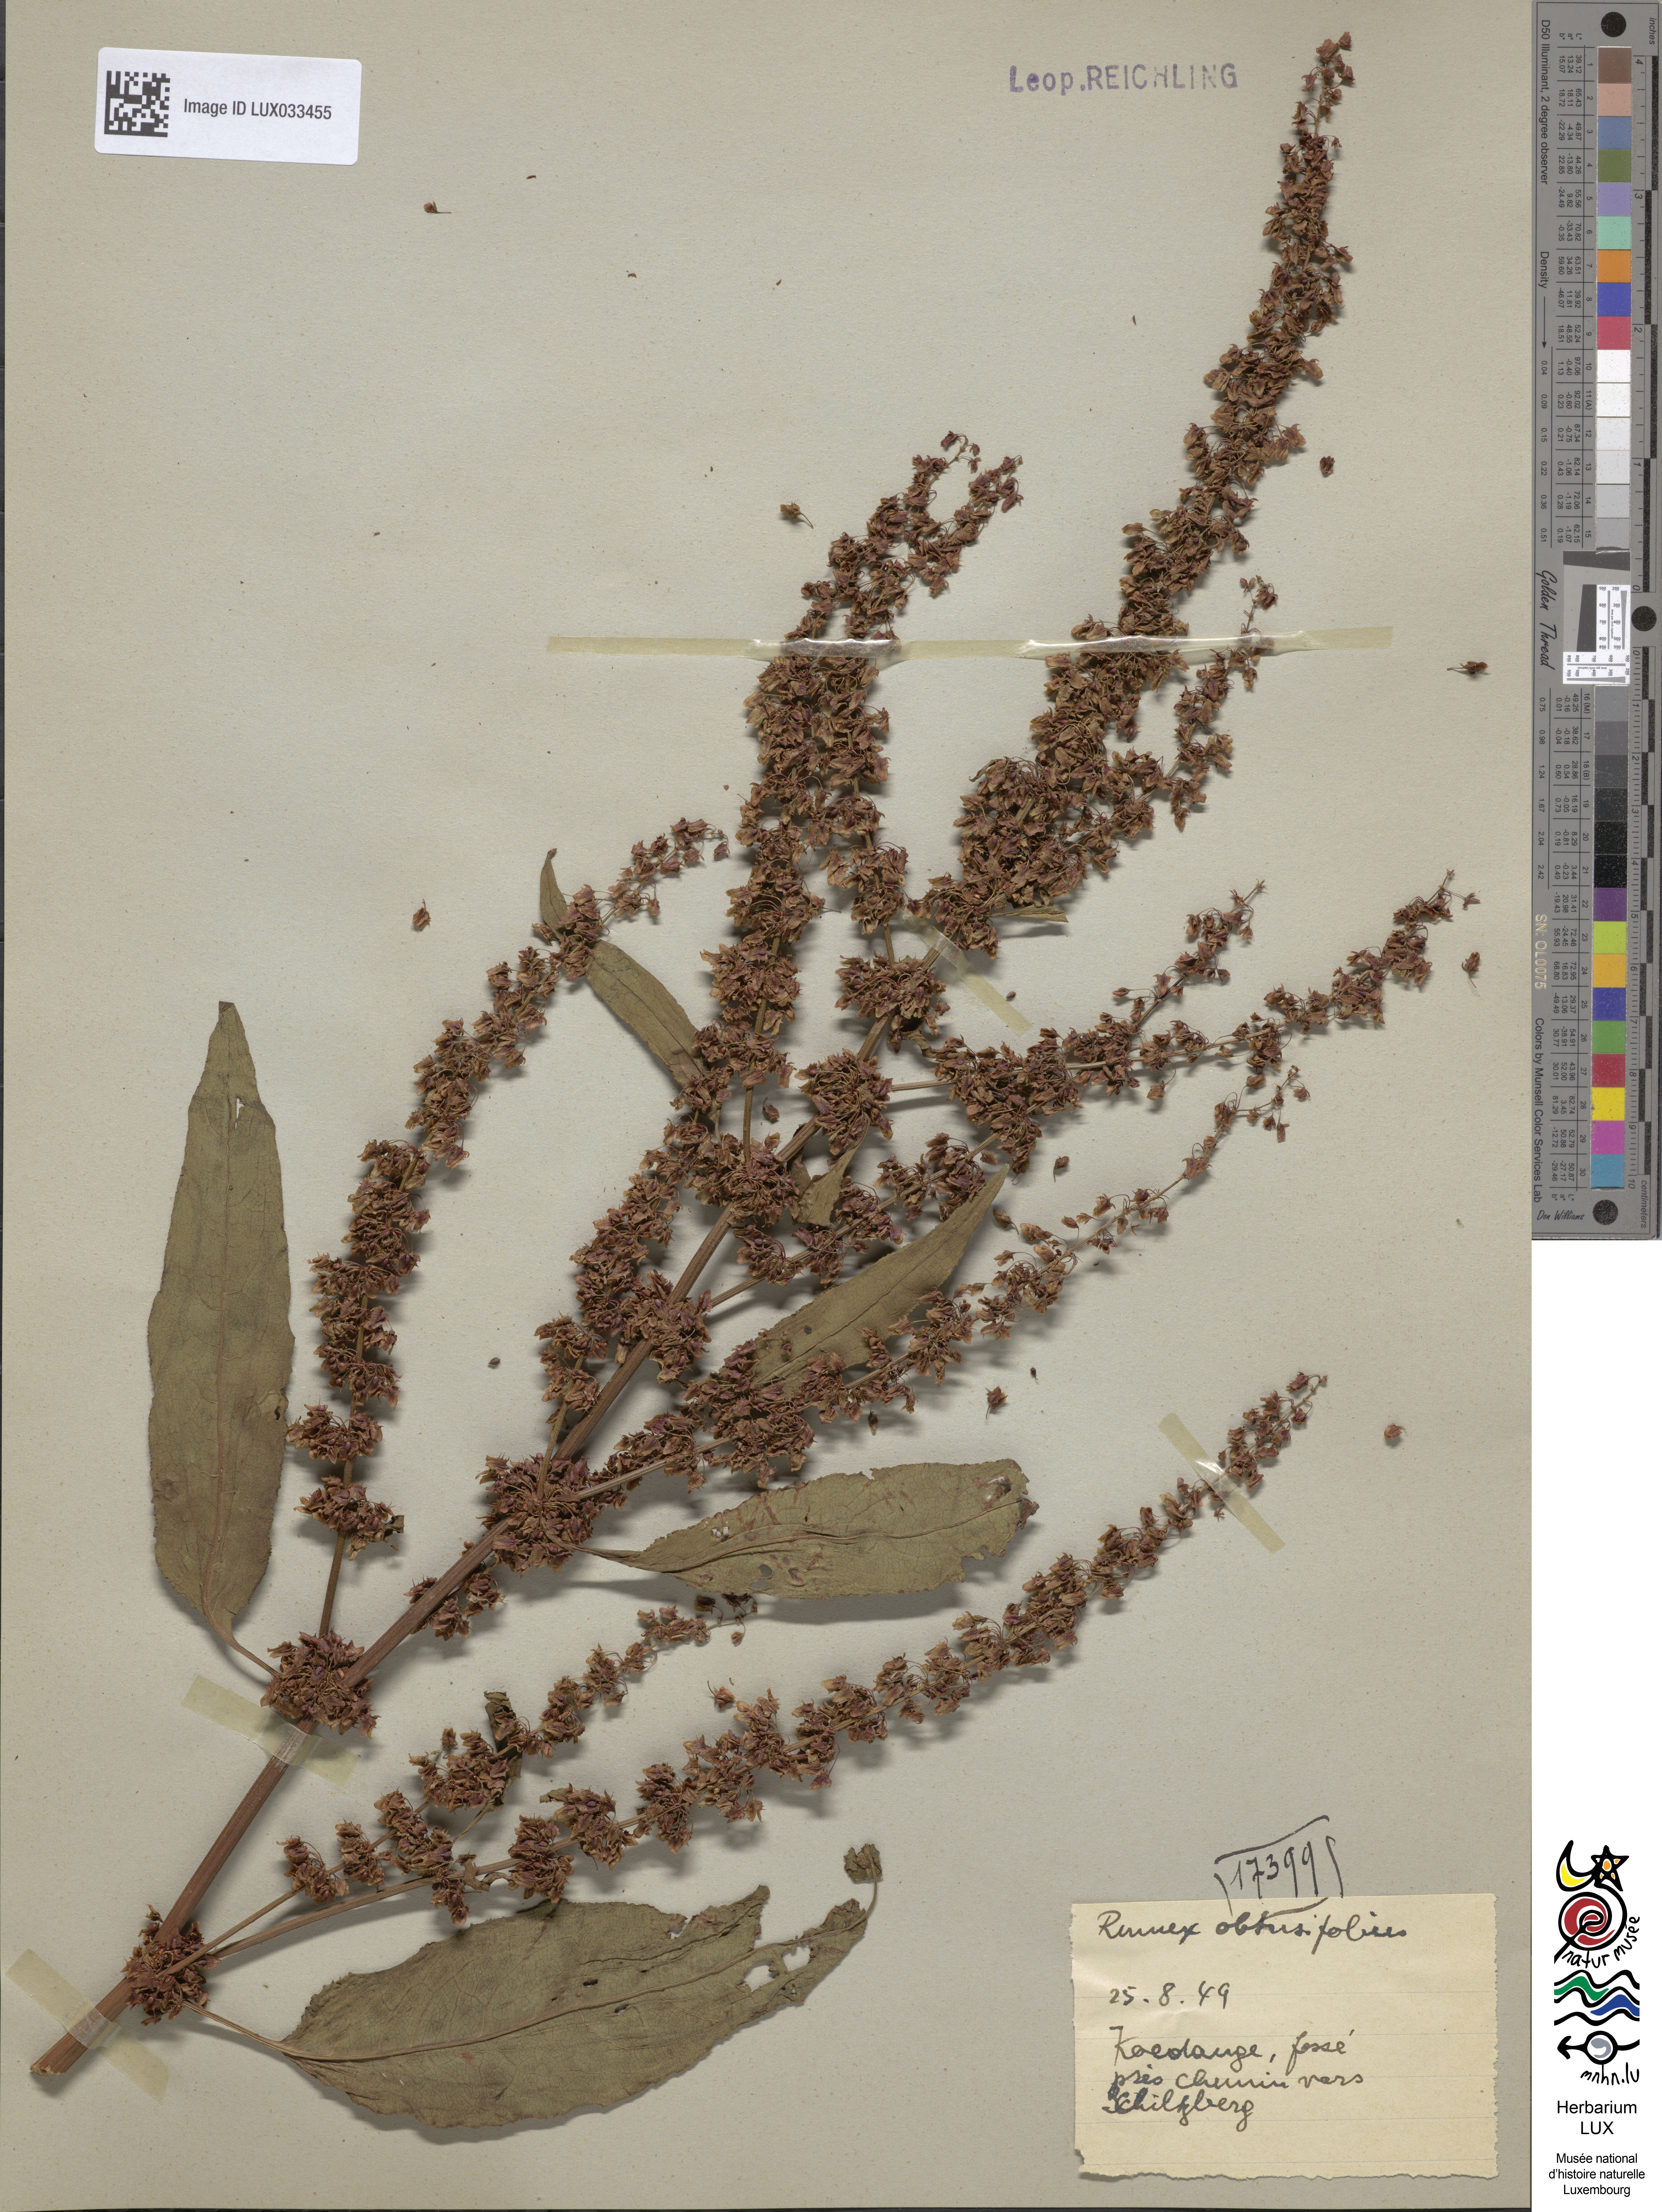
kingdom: Plantae
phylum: Tracheophyta
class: Magnoliopsida
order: Caryophyllales
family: Polygonaceae
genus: Rumex
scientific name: Rumex obtusifolius
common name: Bitter dock
